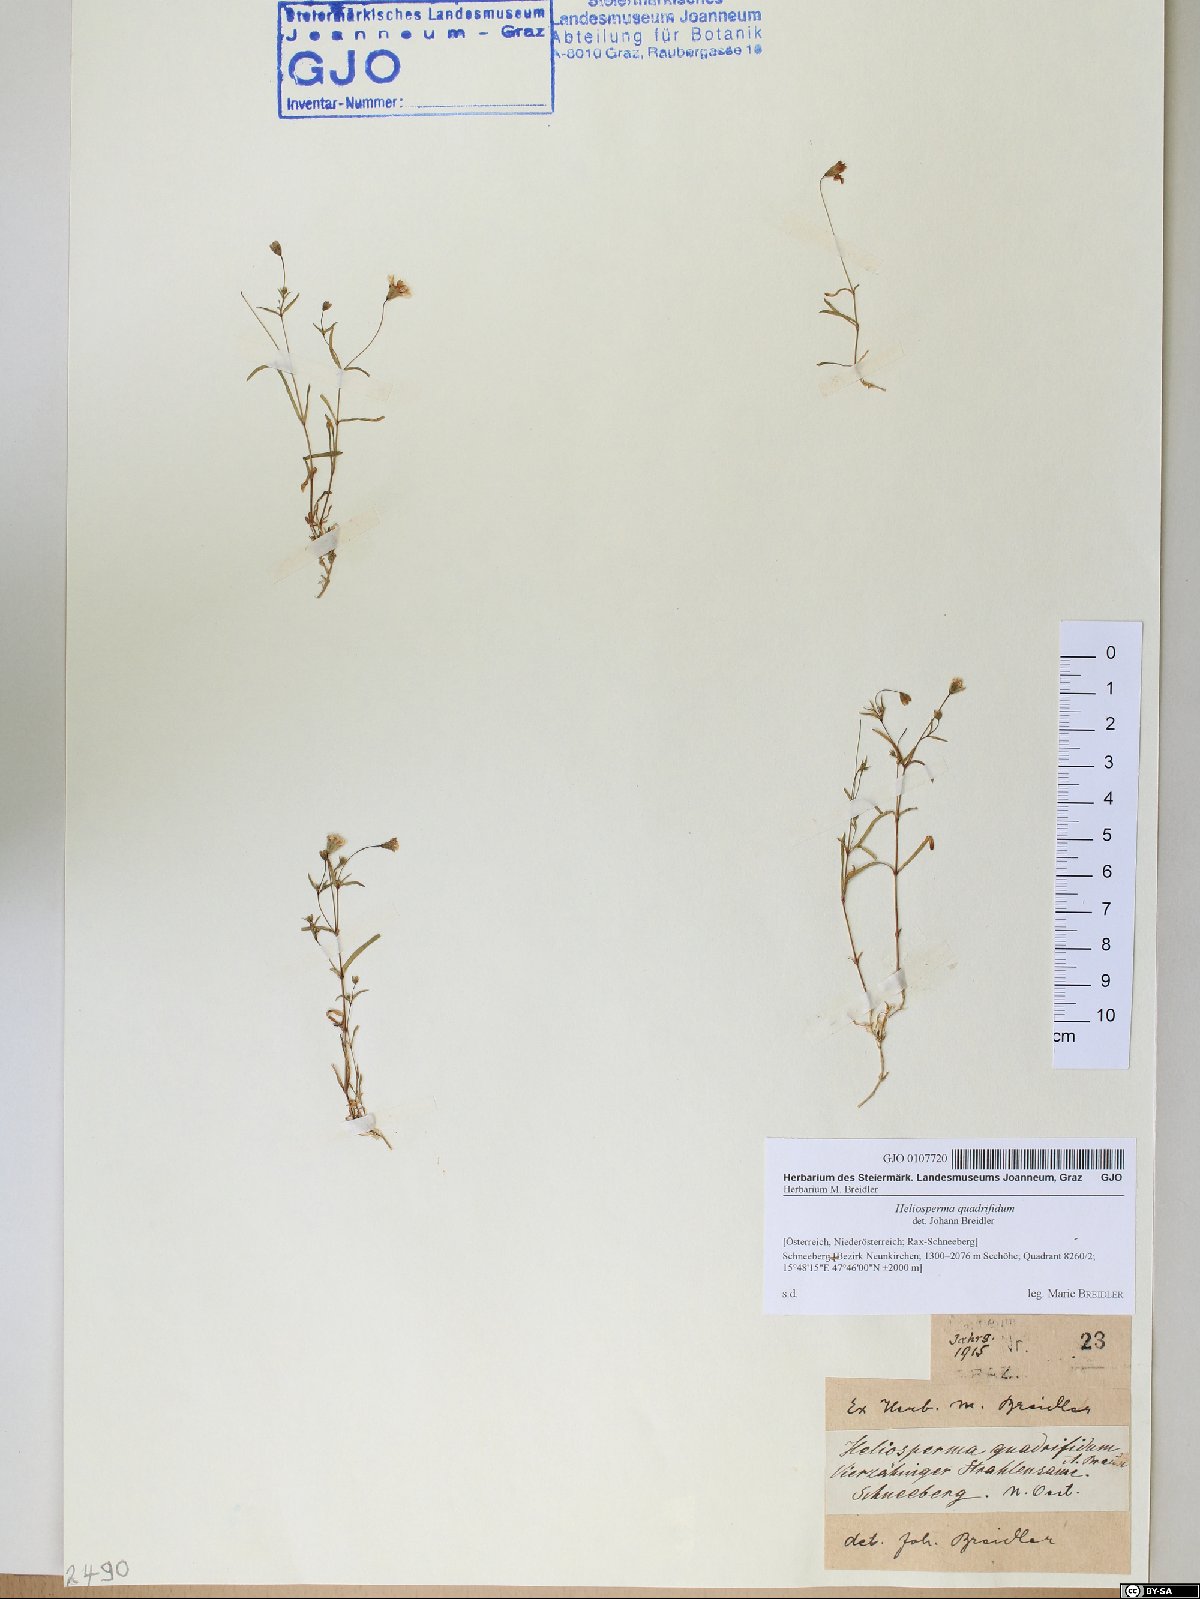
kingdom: Plantae
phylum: Tracheophyta
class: Magnoliopsida
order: Caryophyllales
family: Caryophyllaceae
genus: Heliosperma
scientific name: Heliosperma alpestre
